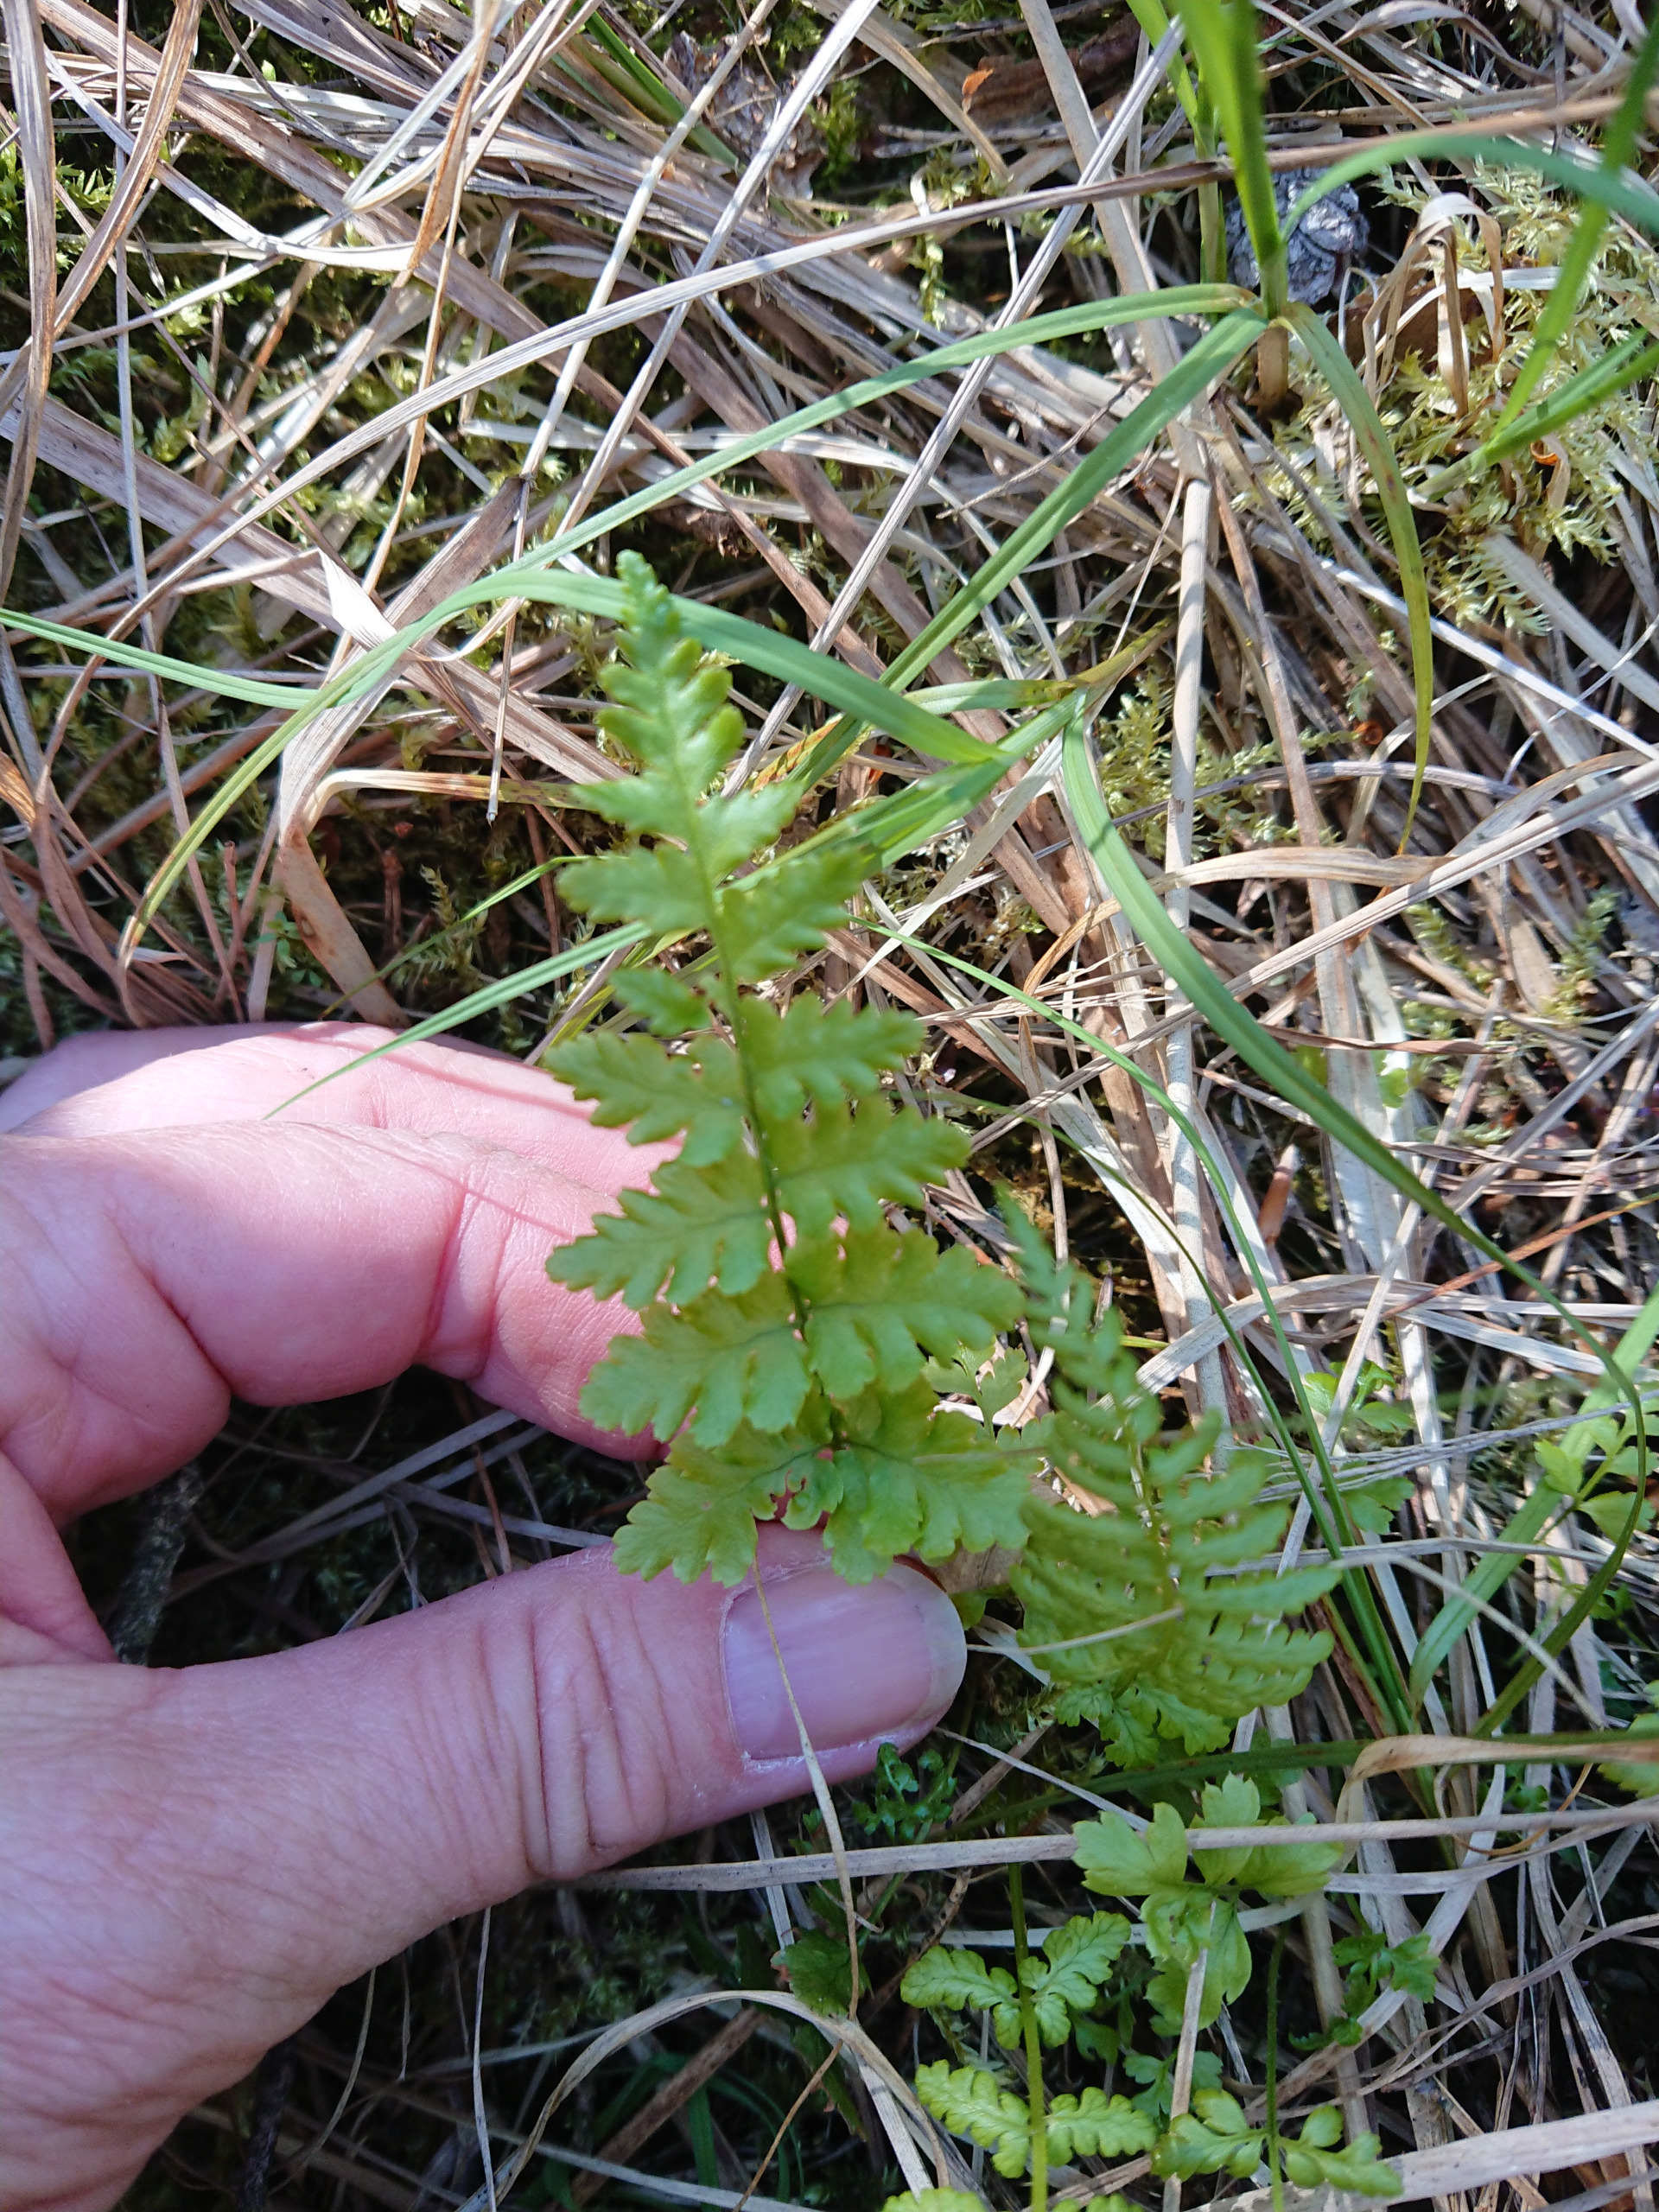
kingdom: Plantae
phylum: Tracheophyta
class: Polypodiopsida
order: Polypodiales
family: Dryopteridaceae
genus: Dryopteris
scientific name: Dryopteris cristata
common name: Butfinnet mangeløv
